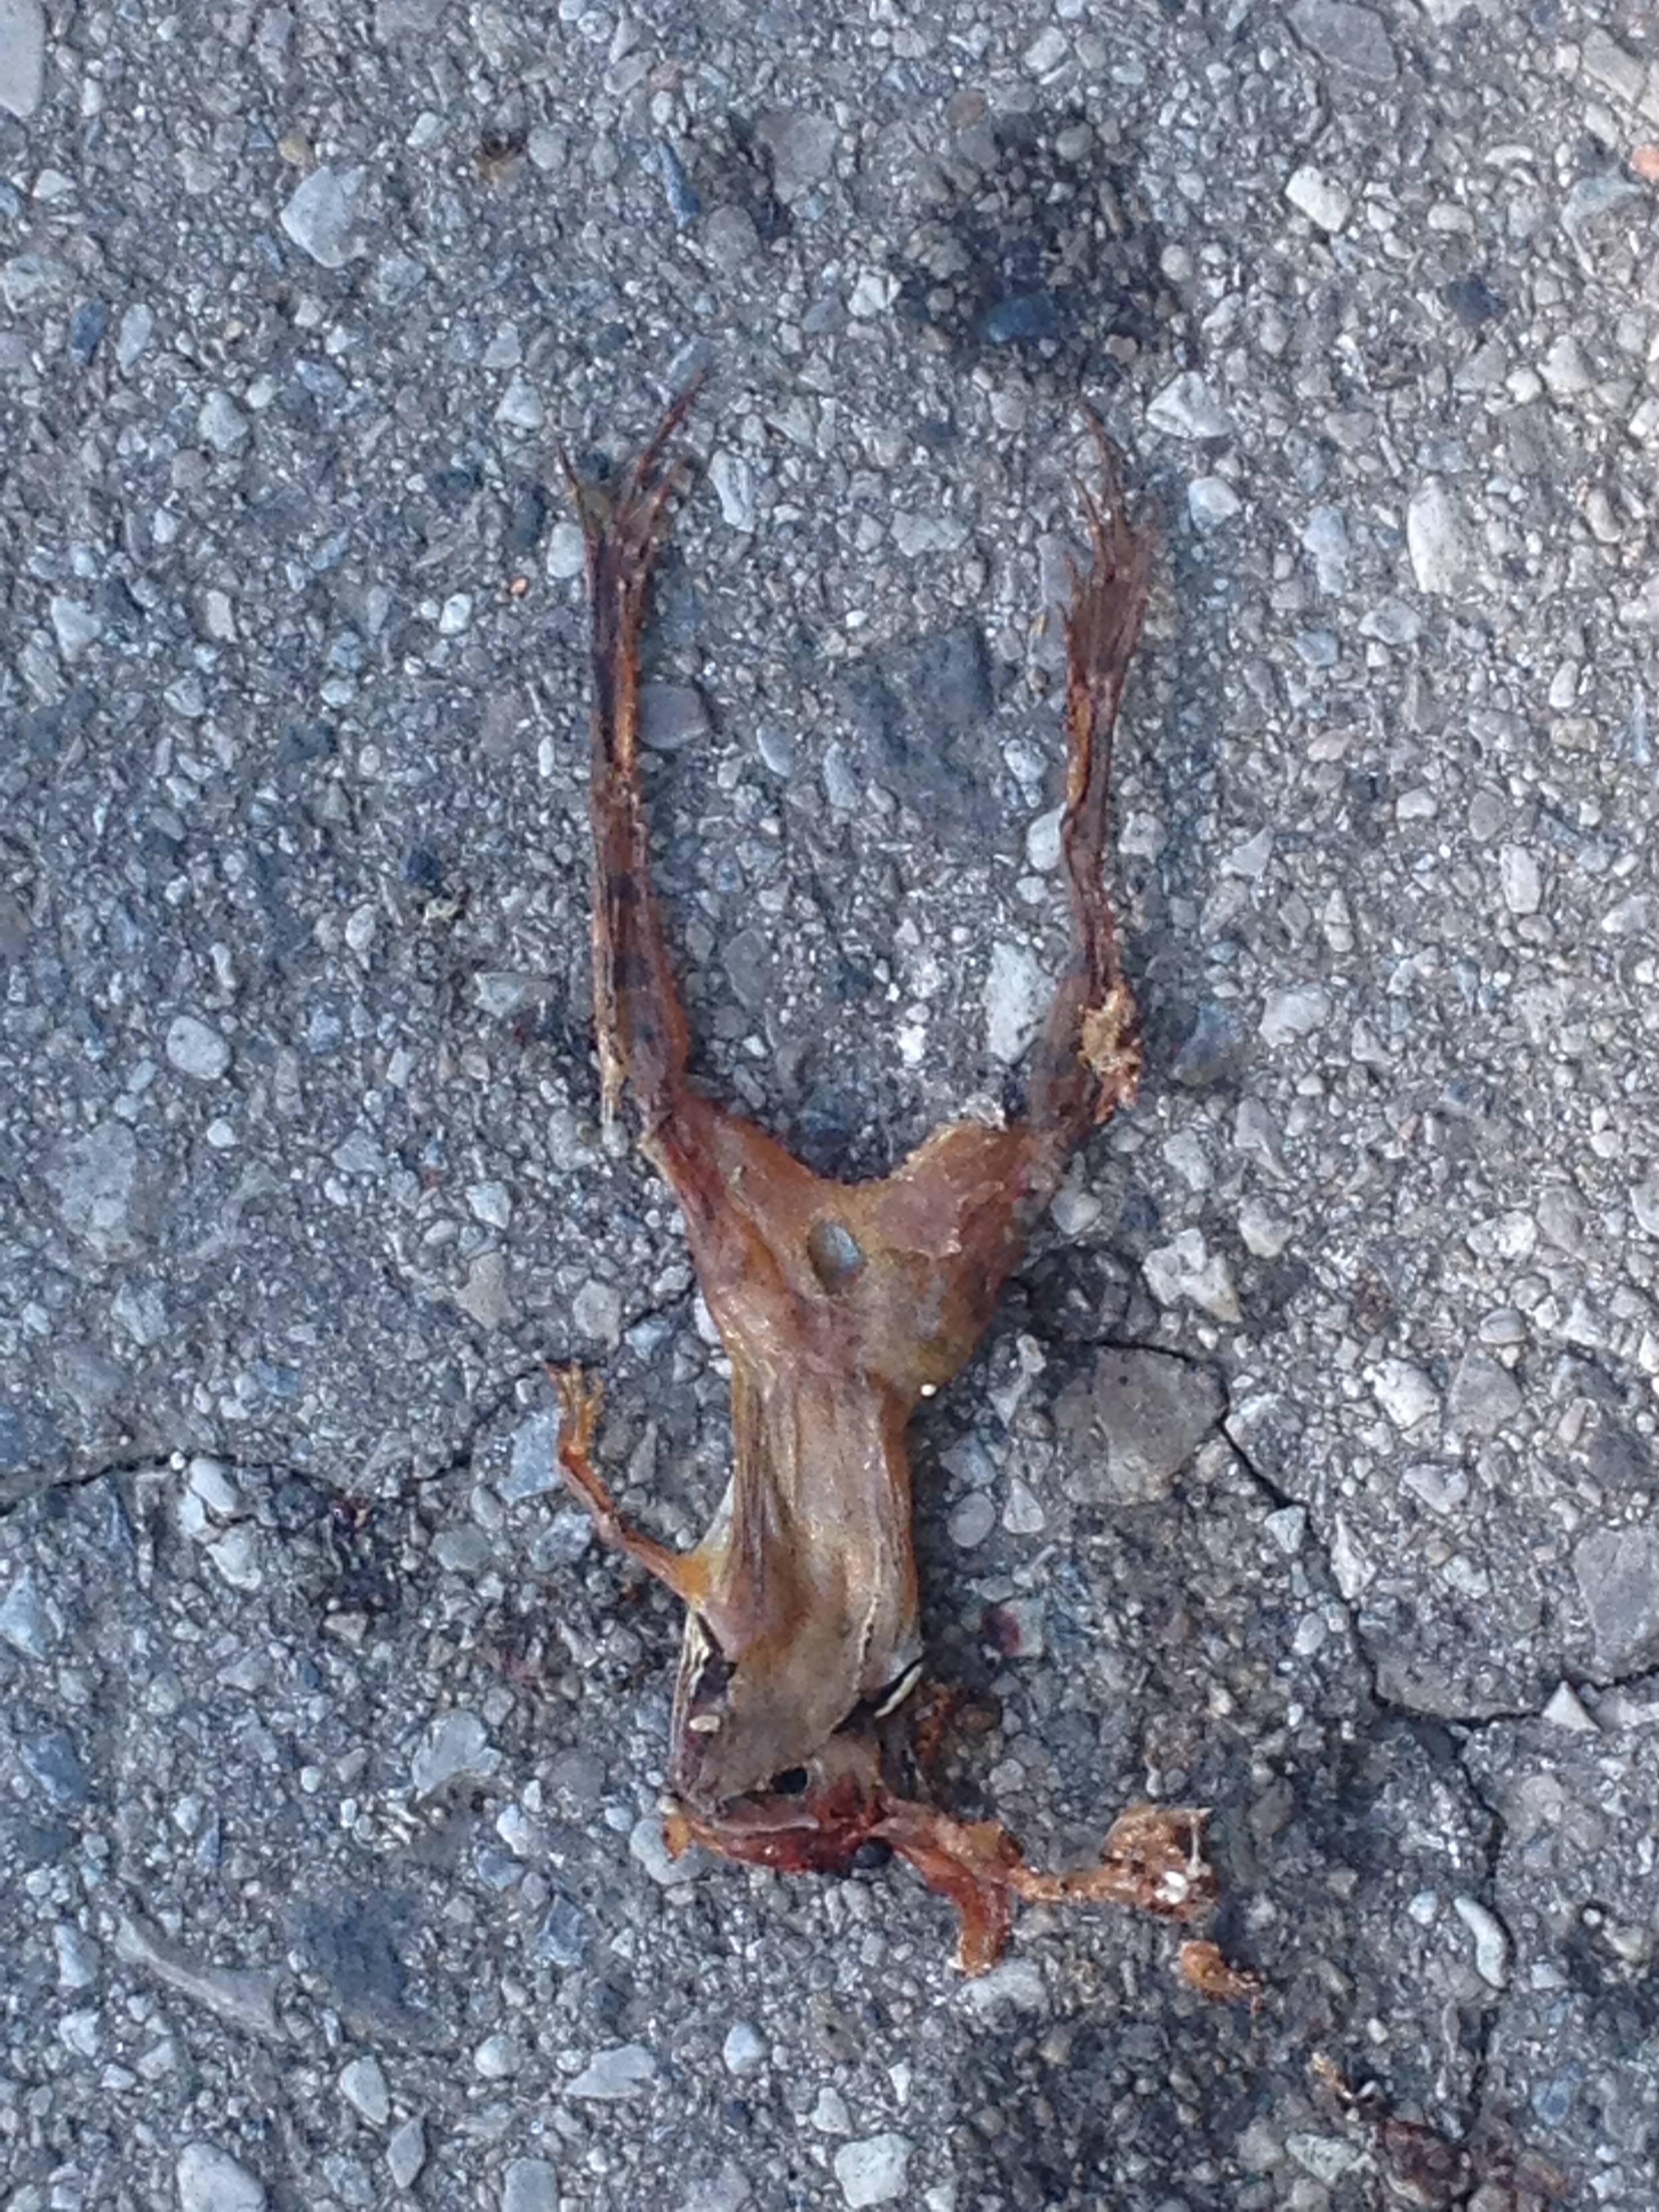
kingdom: Animalia
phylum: Chordata
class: Amphibia
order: Anura
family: Ranidae
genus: Rana
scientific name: Rana dalmatina
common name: Agile frog
